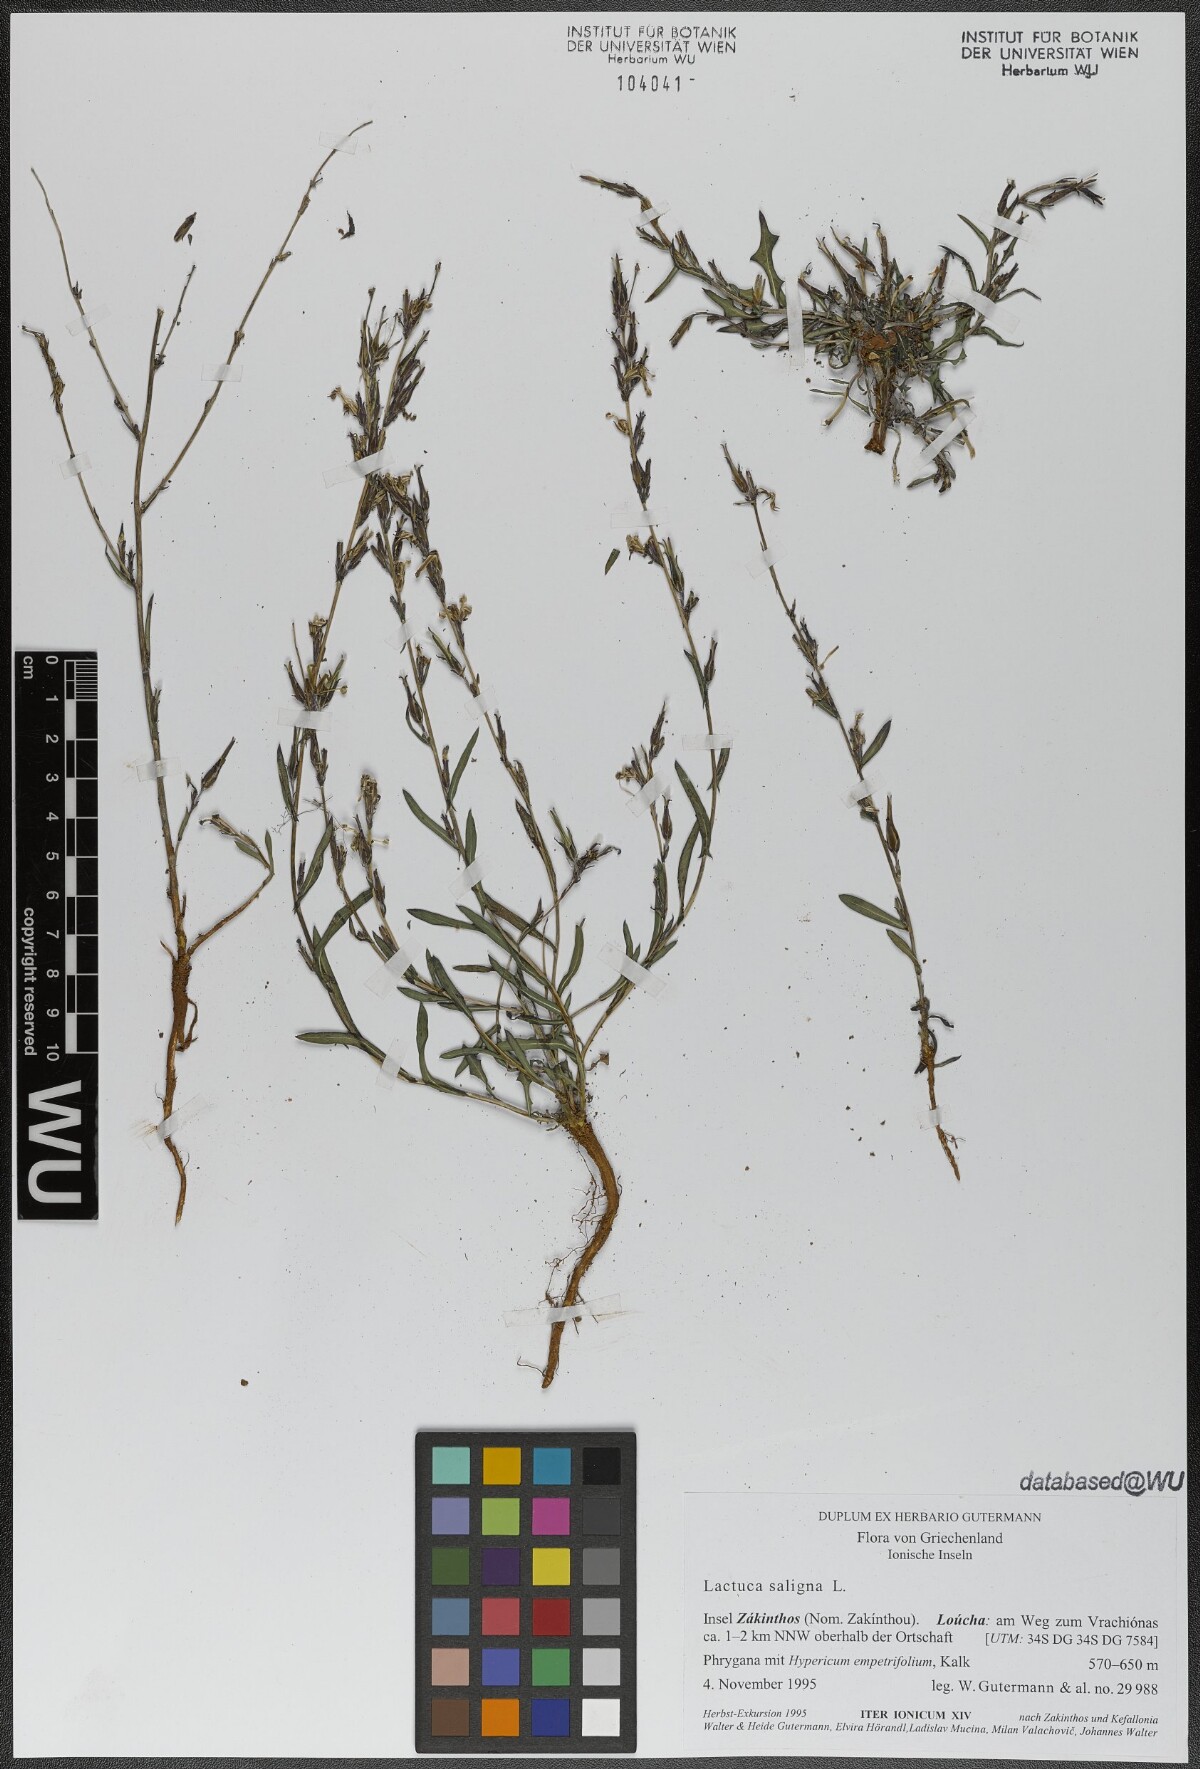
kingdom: Plantae
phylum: Tracheophyta
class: Magnoliopsida
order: Asterales
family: Asteraceae
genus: Lactuca
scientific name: Lactuca saligna
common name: Wild lettuce
